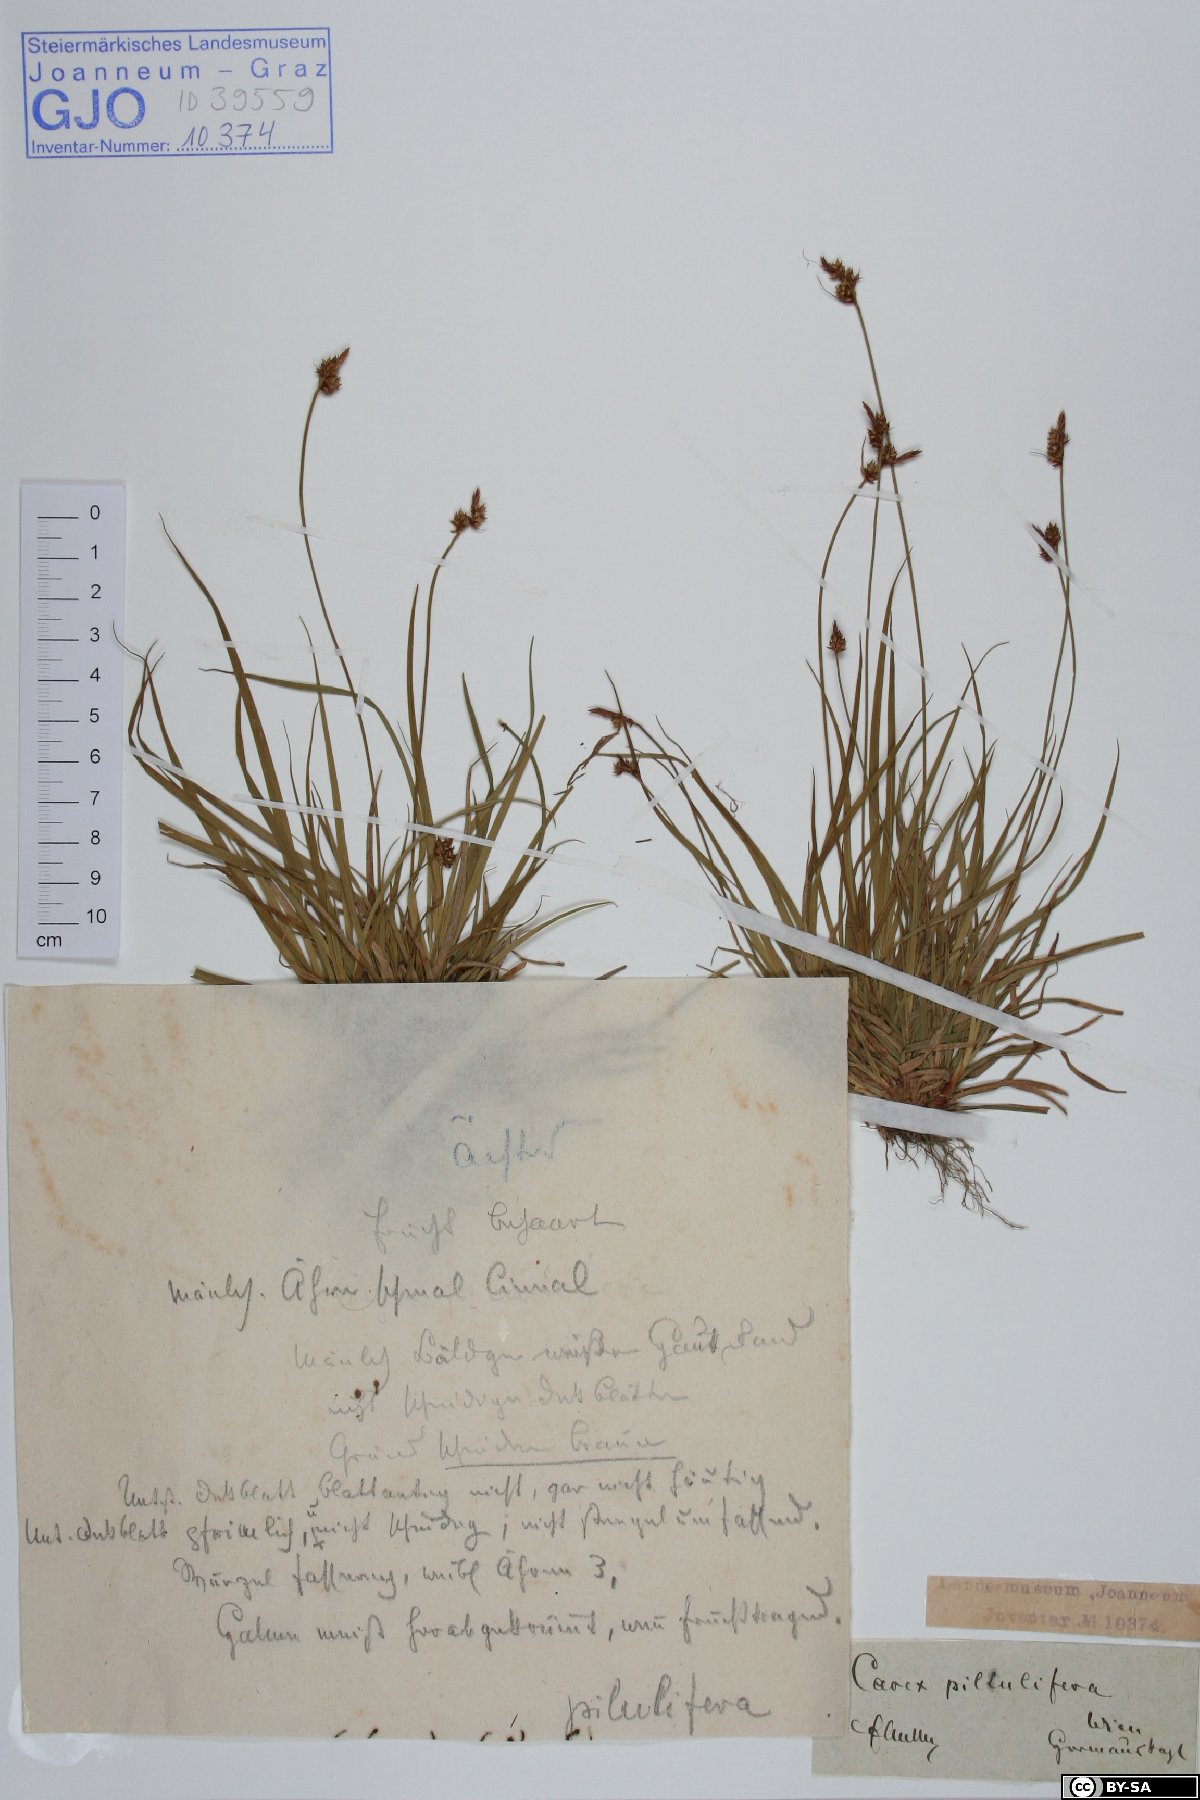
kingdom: Plantae
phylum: Tracheophyta
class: Liliopsida
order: Poales
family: Cyperaceae
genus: Carex
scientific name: Carex pilulifera
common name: Pill sedge
